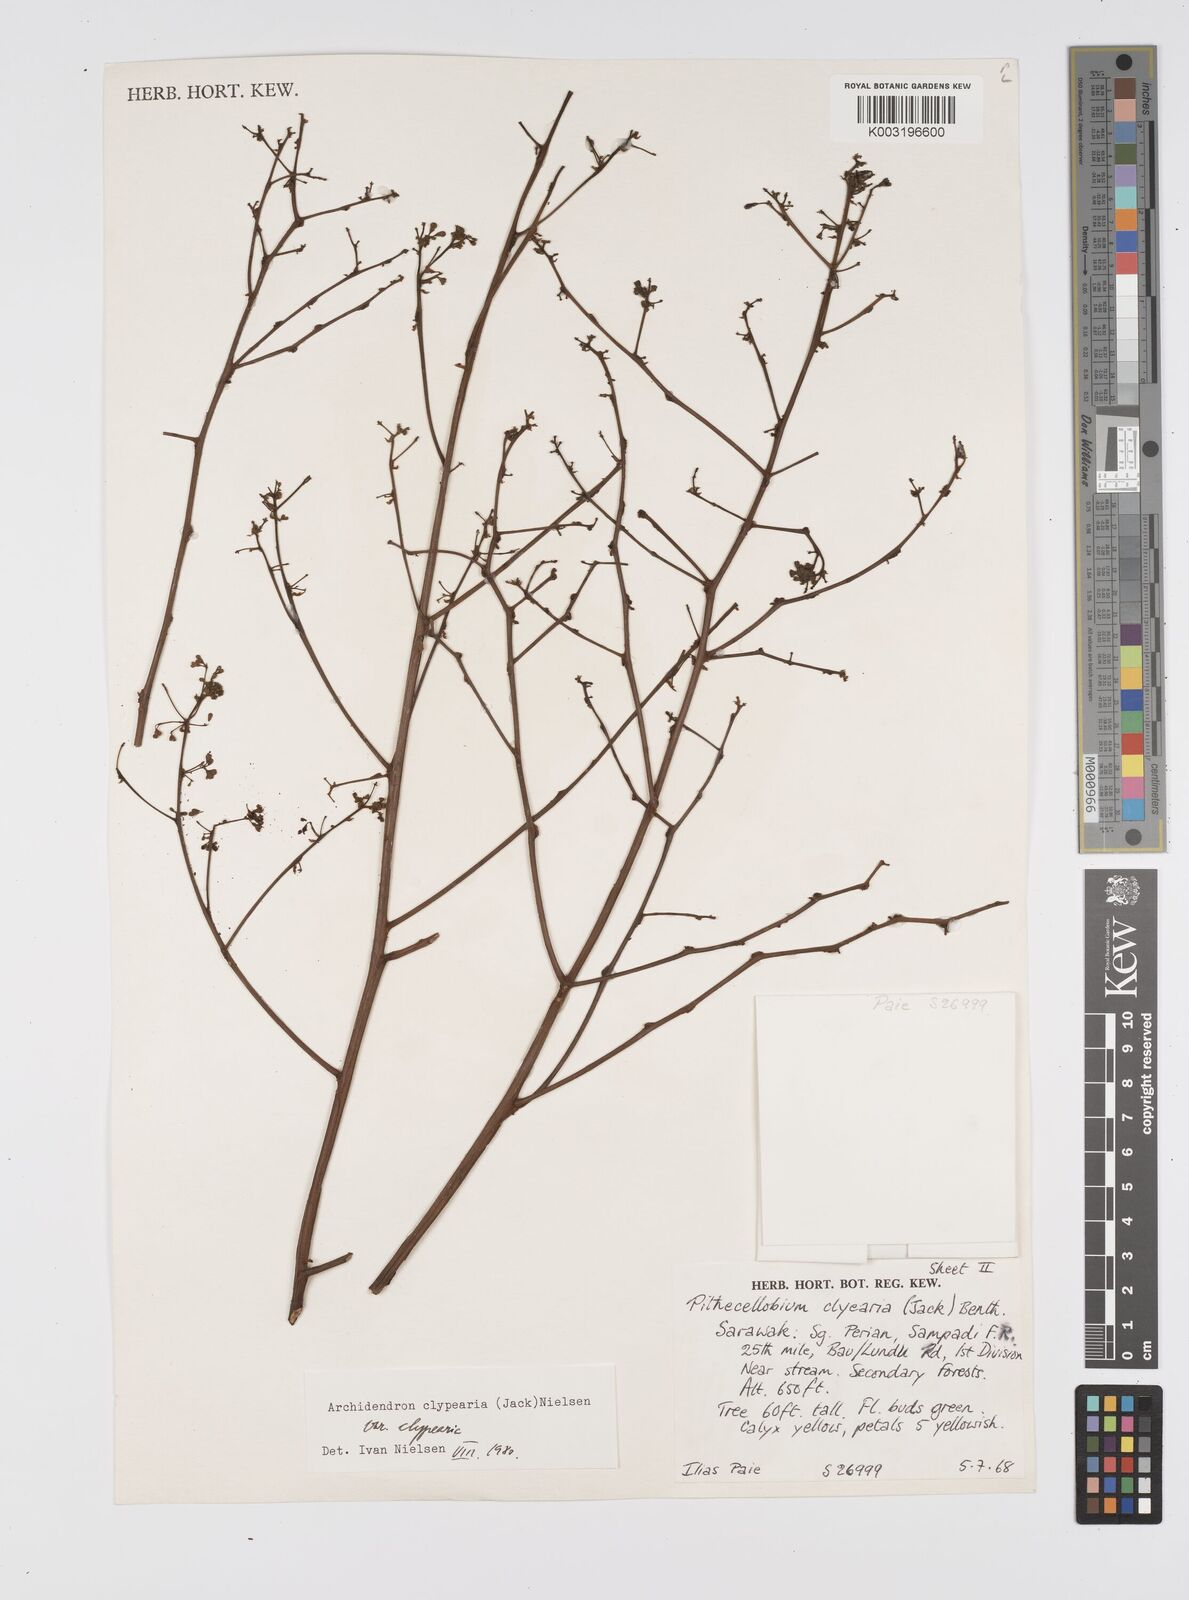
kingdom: Plantae
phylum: Tracheophyta
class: Magnoliopsida
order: Fabales
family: Fabaceae
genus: Archidendron
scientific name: Archidendron clypearia
